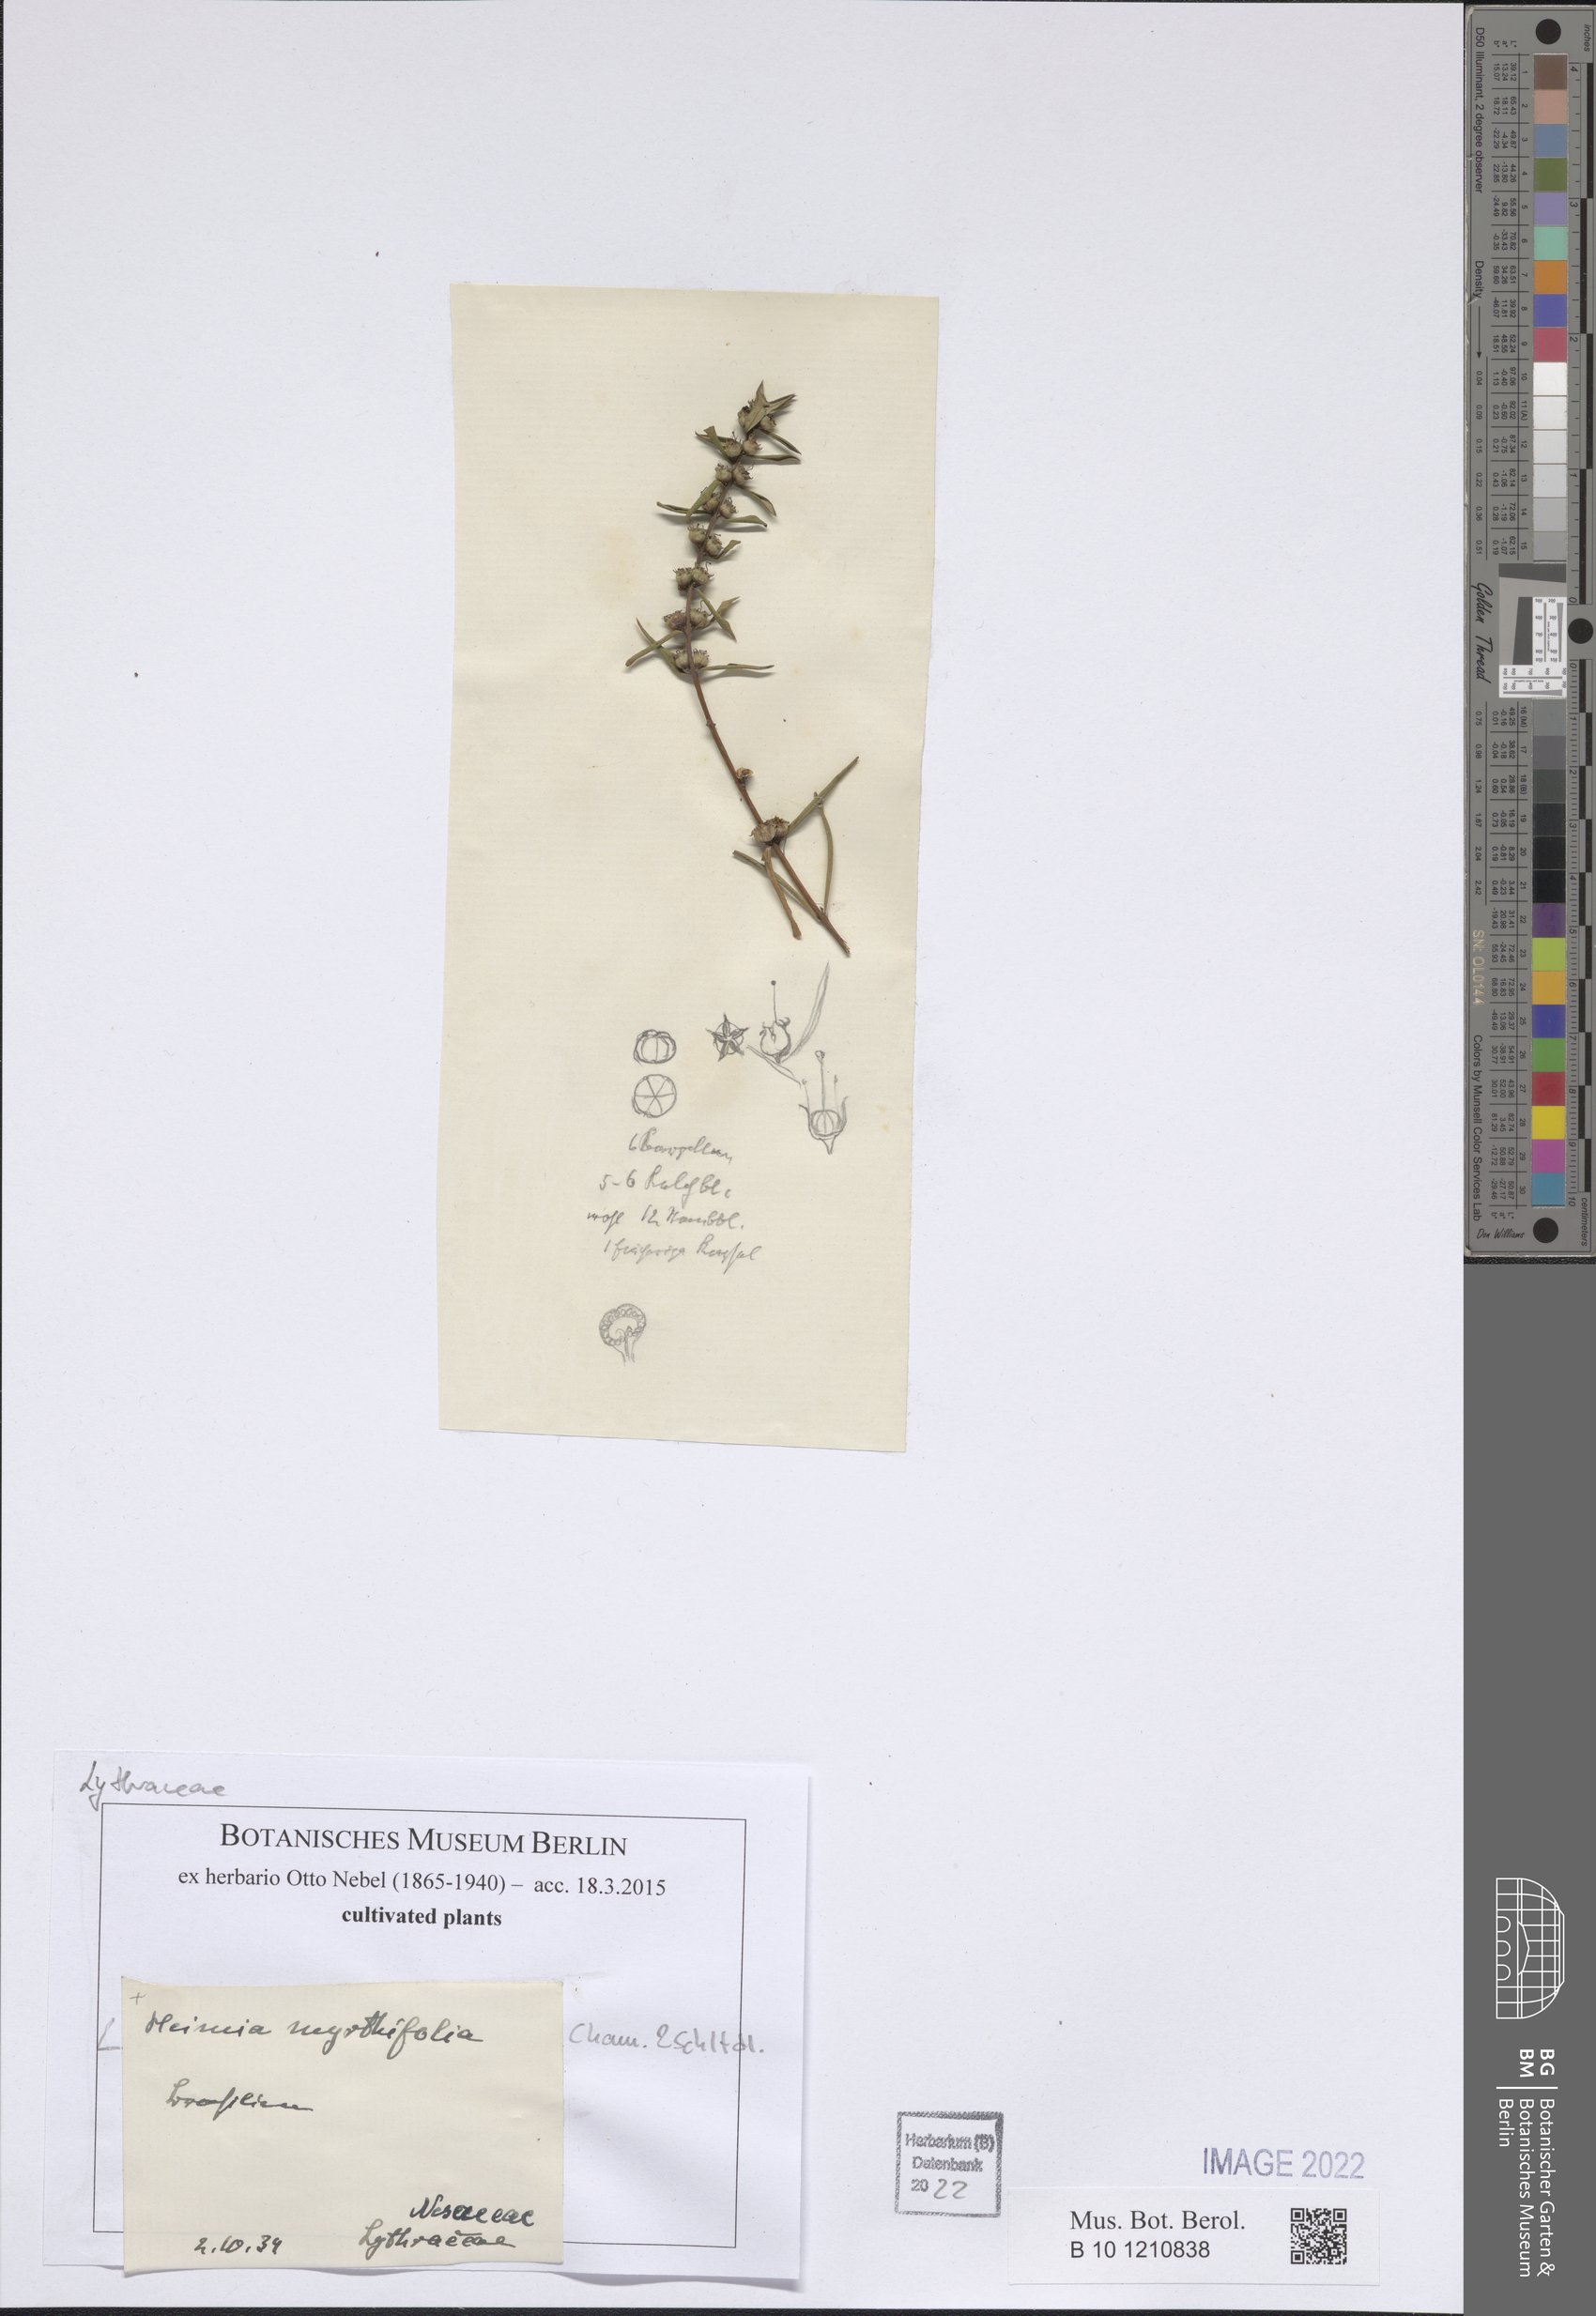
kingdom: Plantae
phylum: Tracheophyta
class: Magnoliopsida
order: Myrtales
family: Lythraceae
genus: Heimia
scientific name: Heimia apetala
